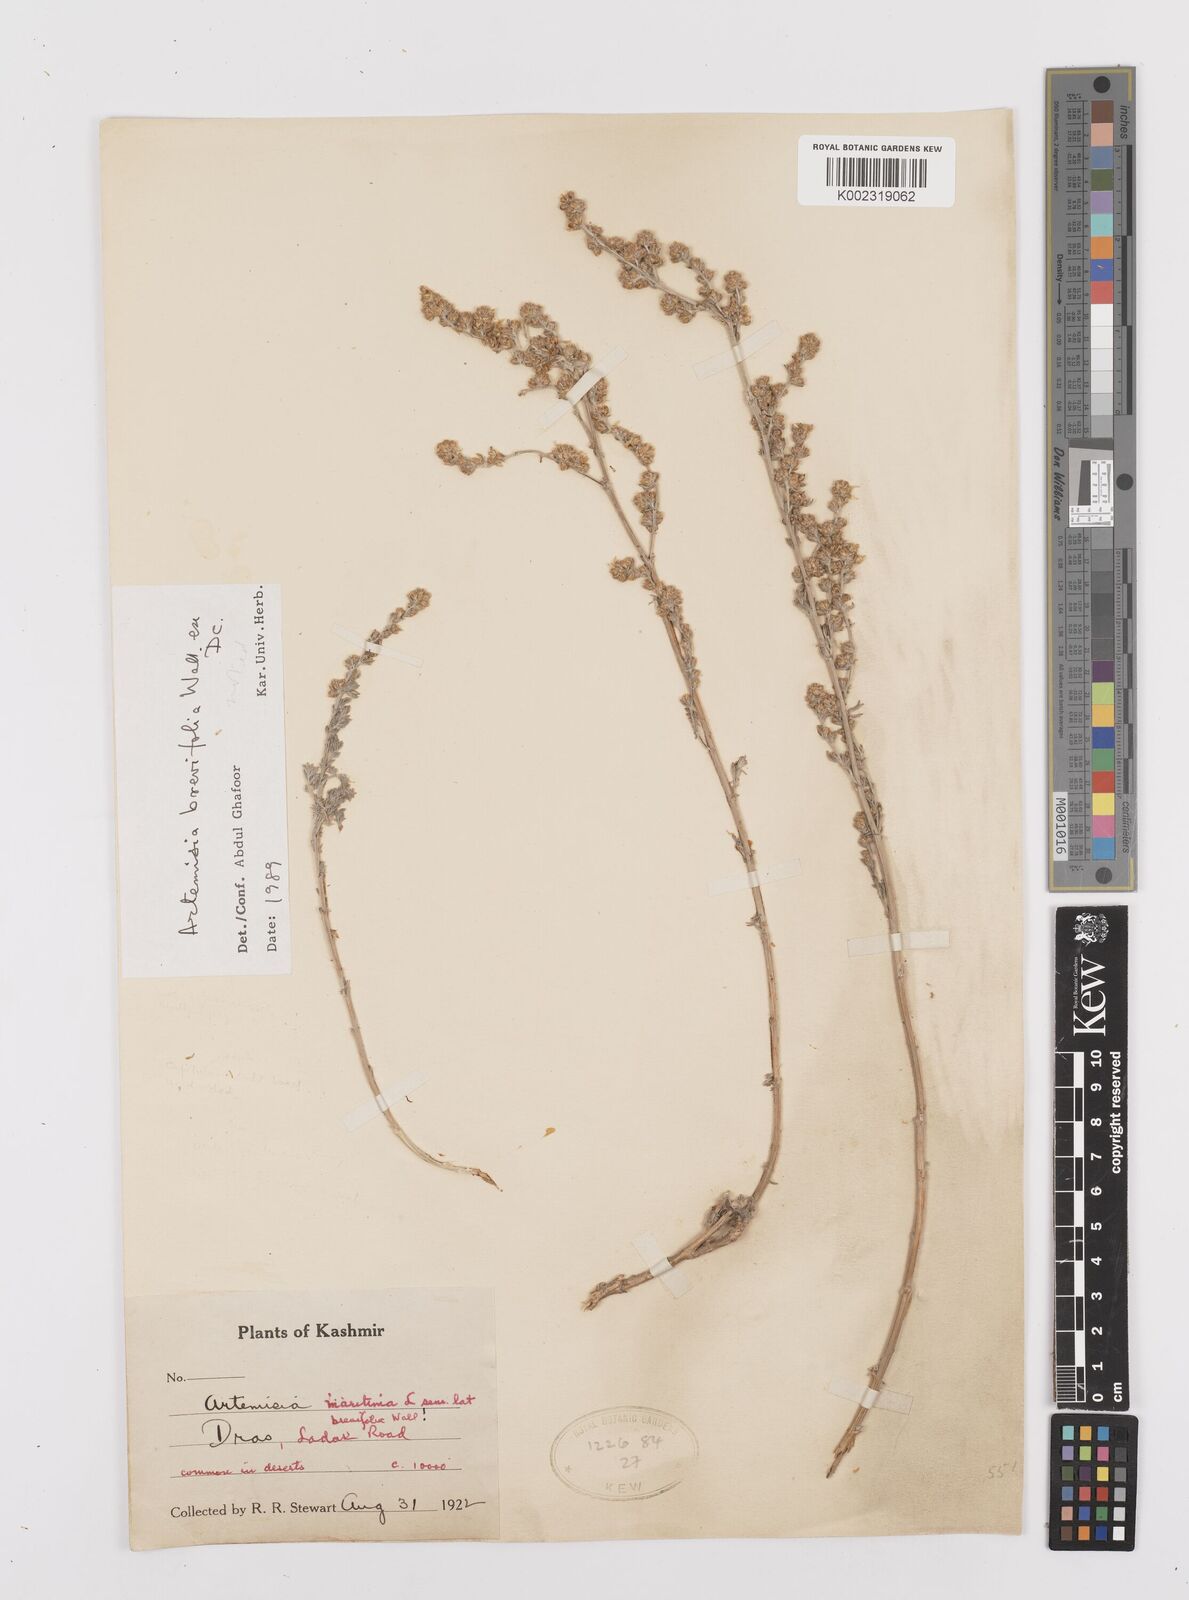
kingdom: Plantae
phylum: Tracheophyta
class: Magnoliopsida
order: Asterales
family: Asteraceae
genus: Artemisia
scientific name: Artemisia brevifolia
